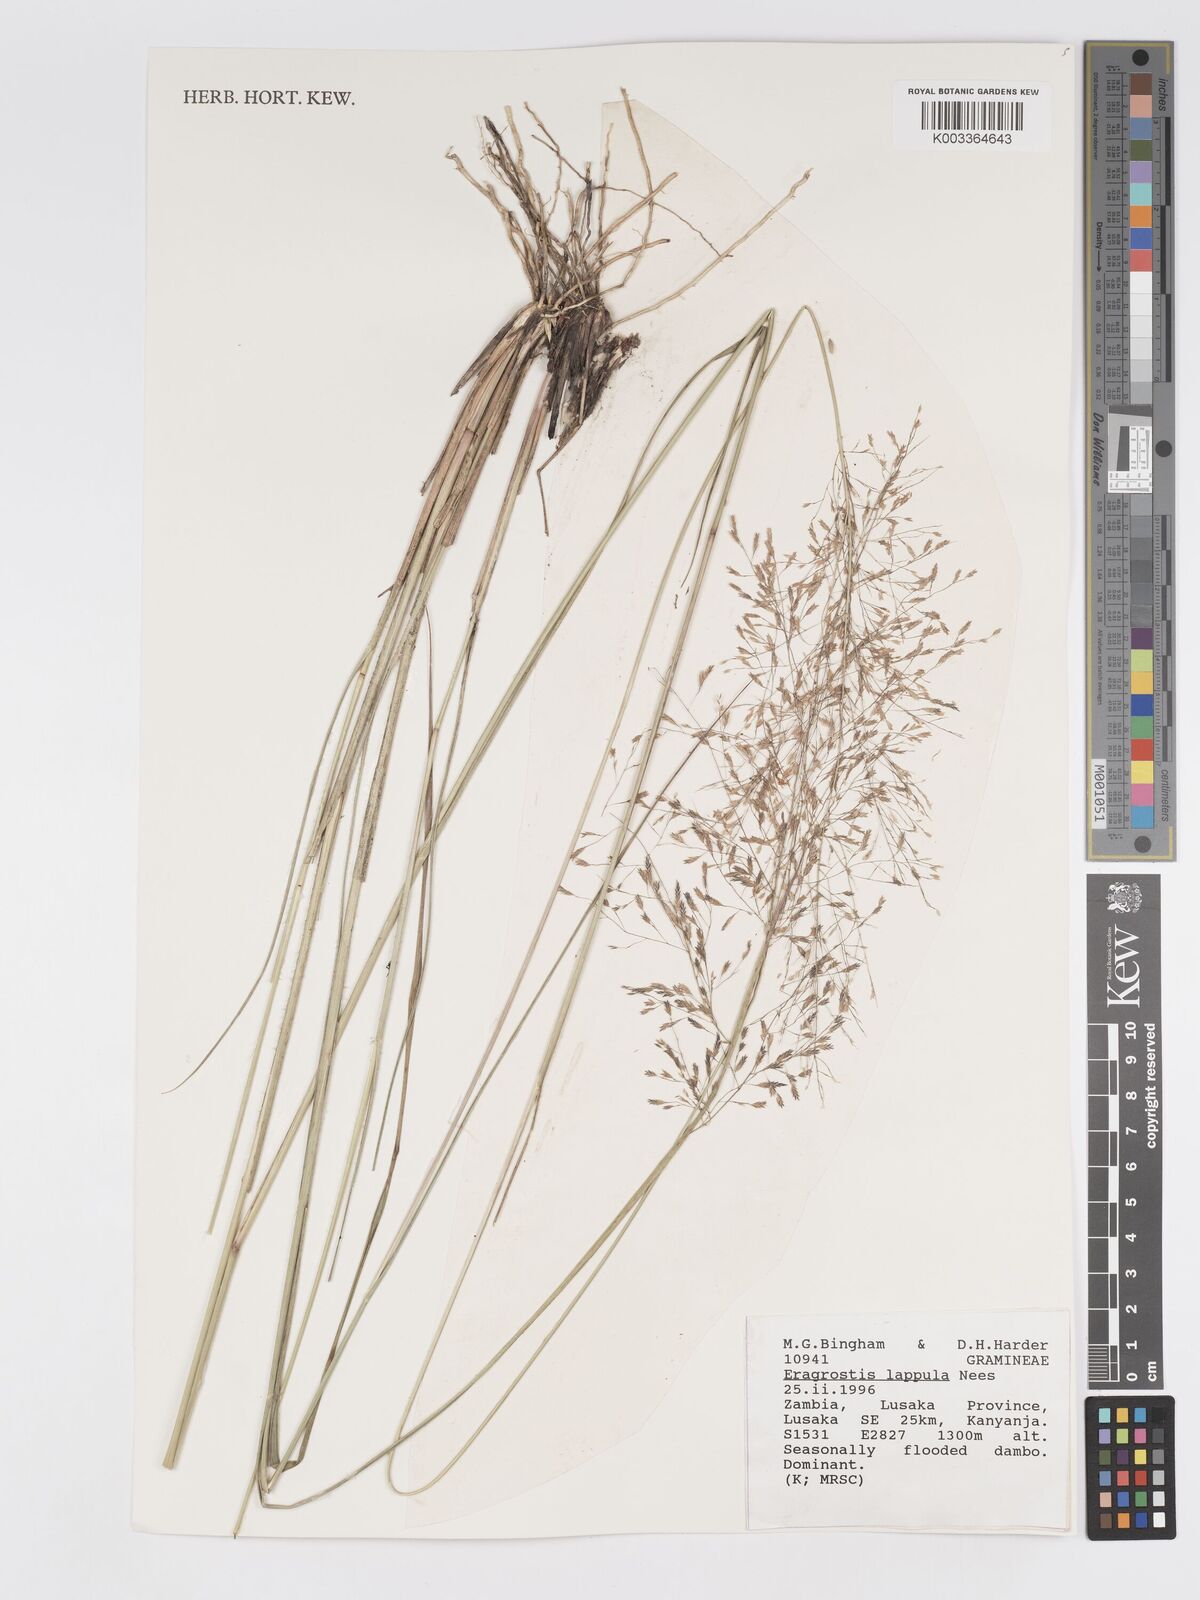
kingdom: Plantae
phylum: Tracheophyta
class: Liliopsida
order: Poales
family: Poaceae
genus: Eragrostis
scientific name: Eragrostis lappula
